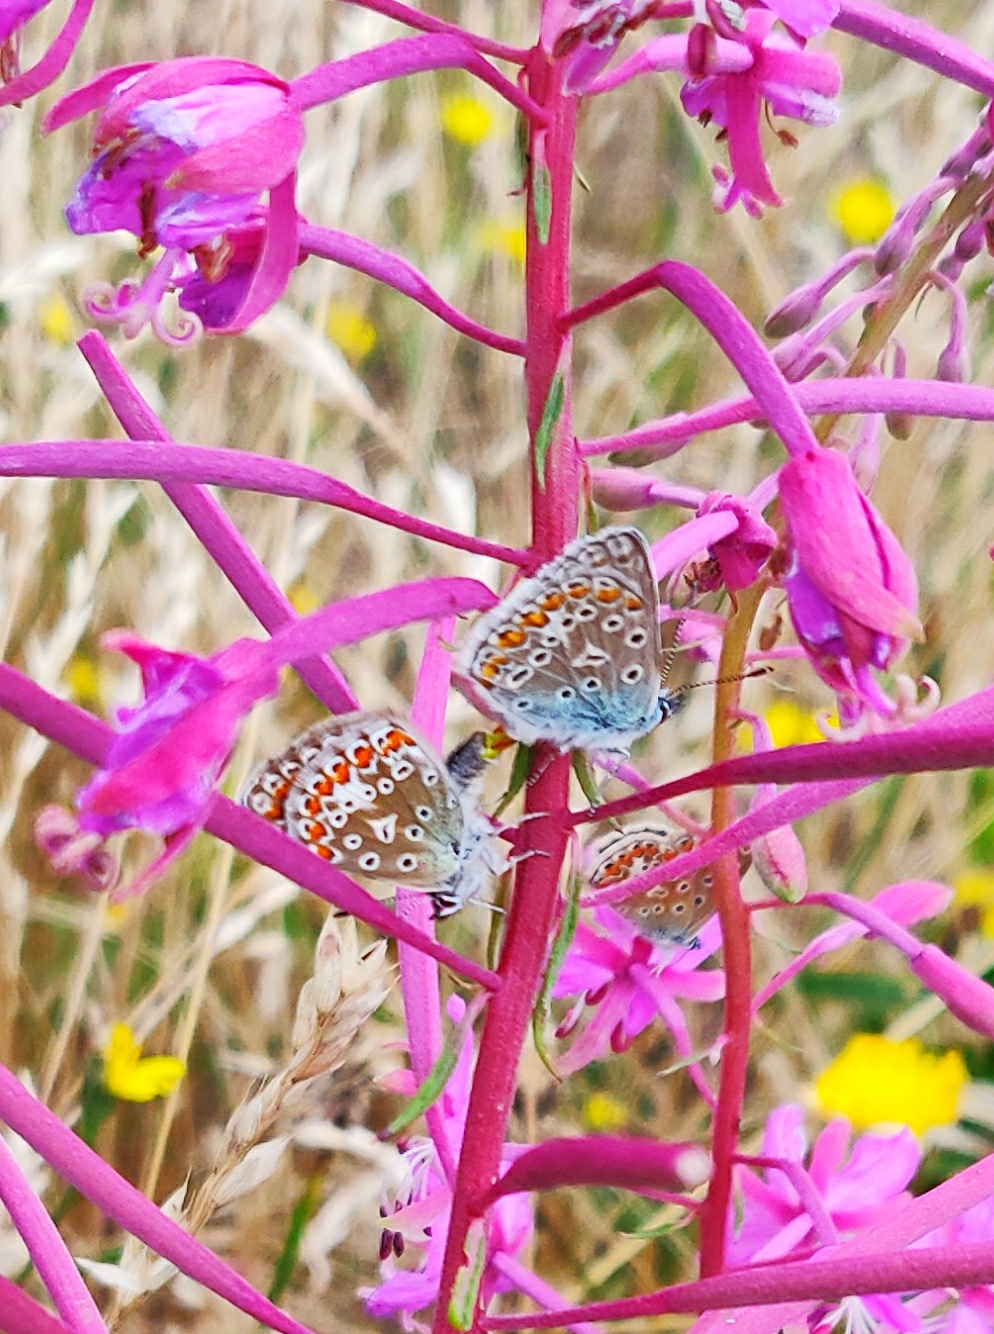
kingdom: Animalia
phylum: Arthropoda
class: Insecta
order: Lepidoptera
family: Lycaenidae
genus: Polyommatus
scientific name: Polyommatus icarus
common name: Almindelig blåfugl
